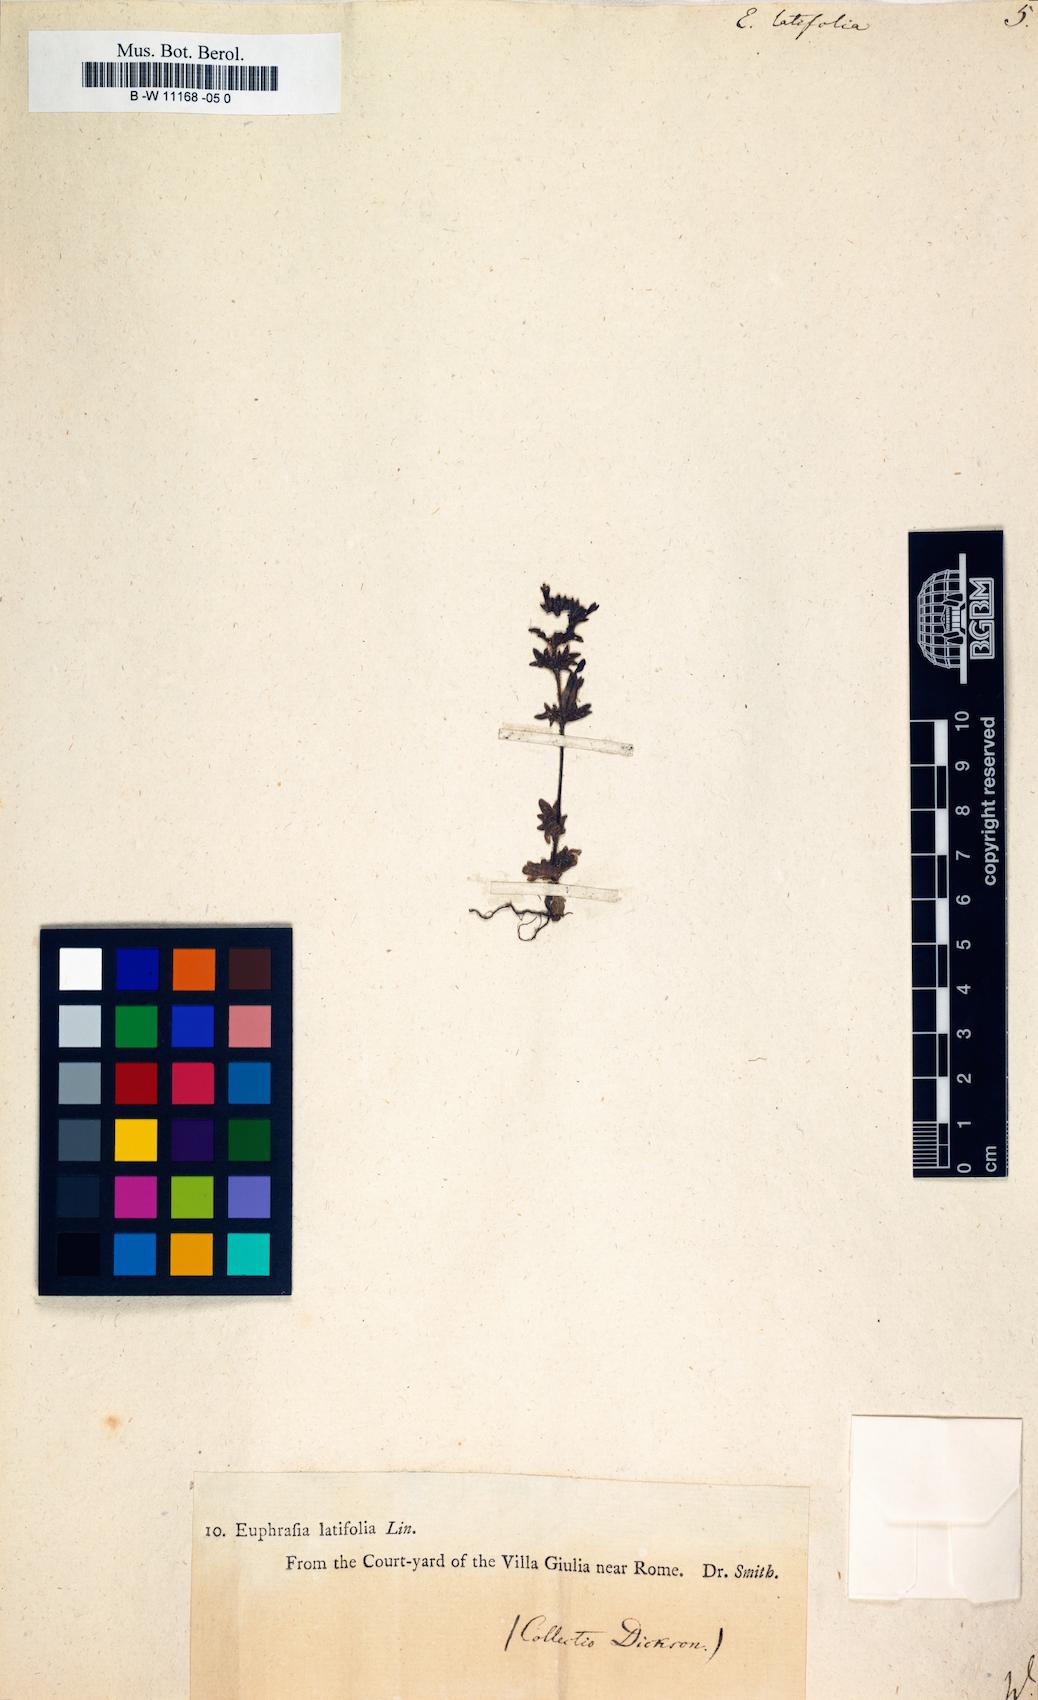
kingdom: Plantae
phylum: Tracheophyta
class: Magnoliopsida
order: Lamiales
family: Orobanchaceae
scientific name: Orobanchaceae
